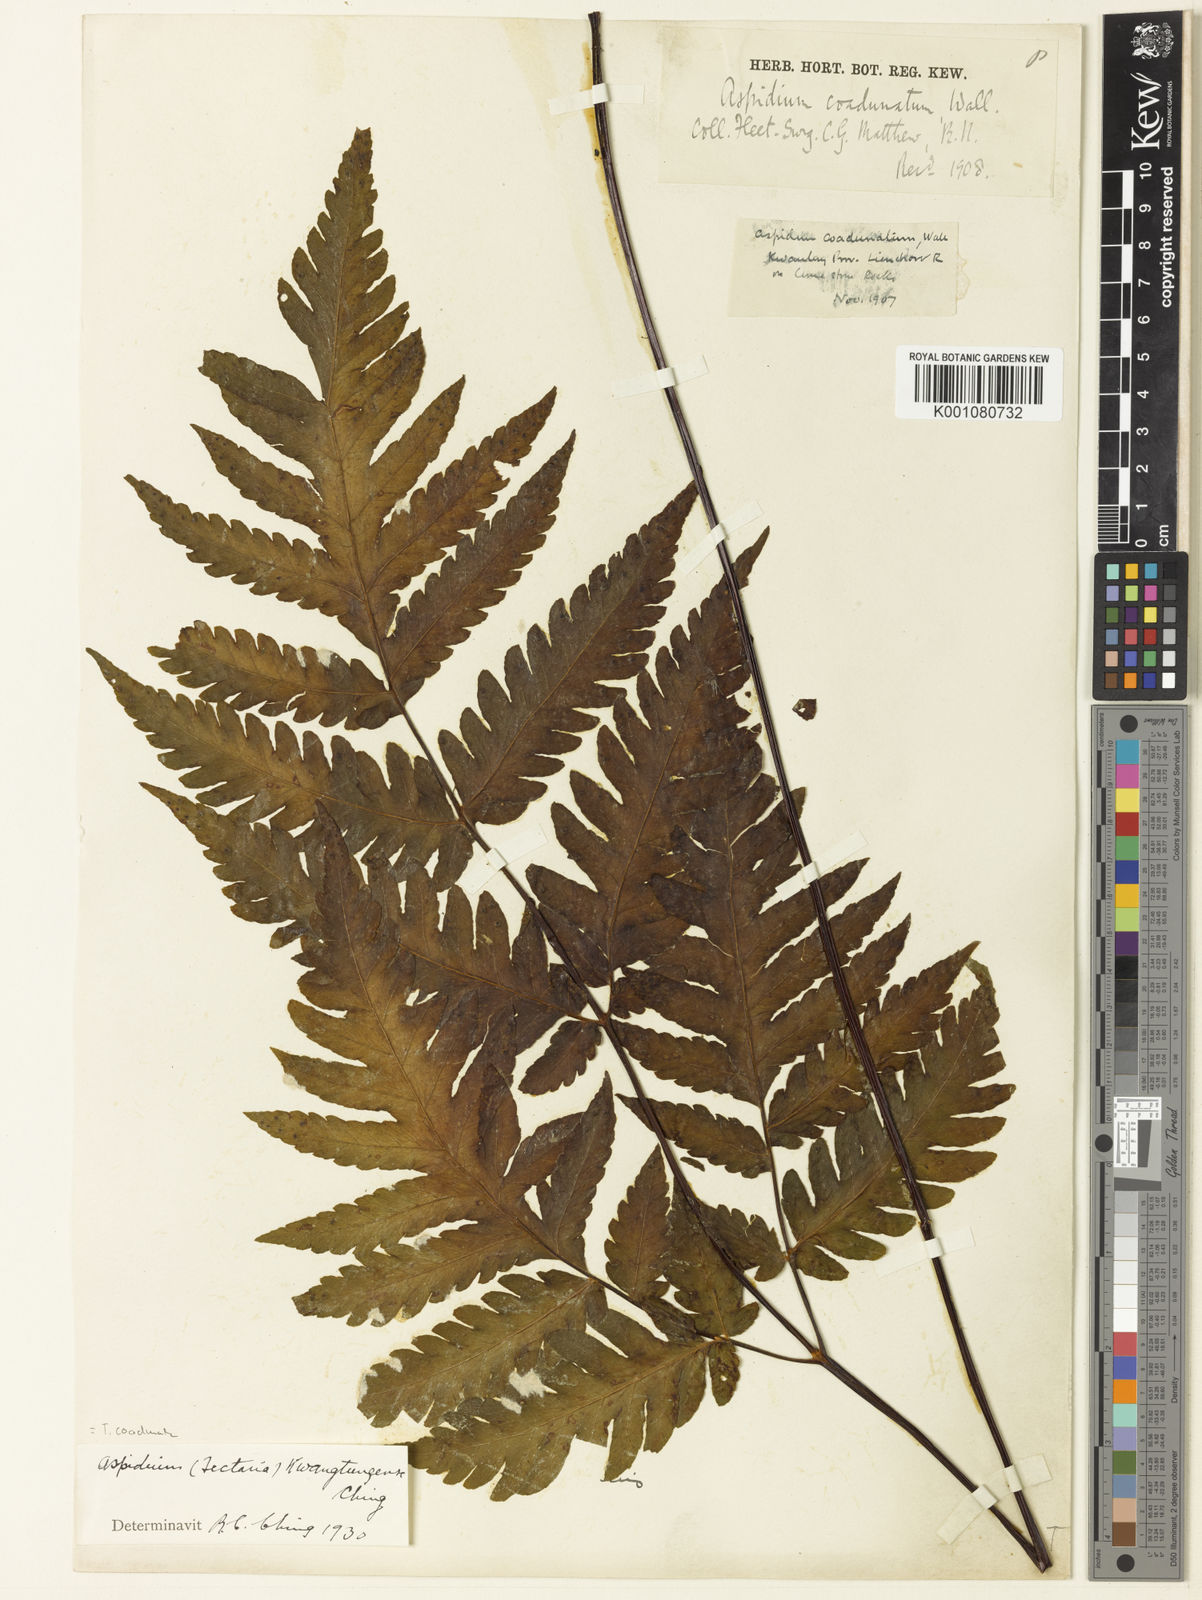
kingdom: Plantae
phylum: Tracheophyta
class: Polypodiopsida
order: Polypodiales
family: Tectariaceae
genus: Tectaria
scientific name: Tectaria coadunata
